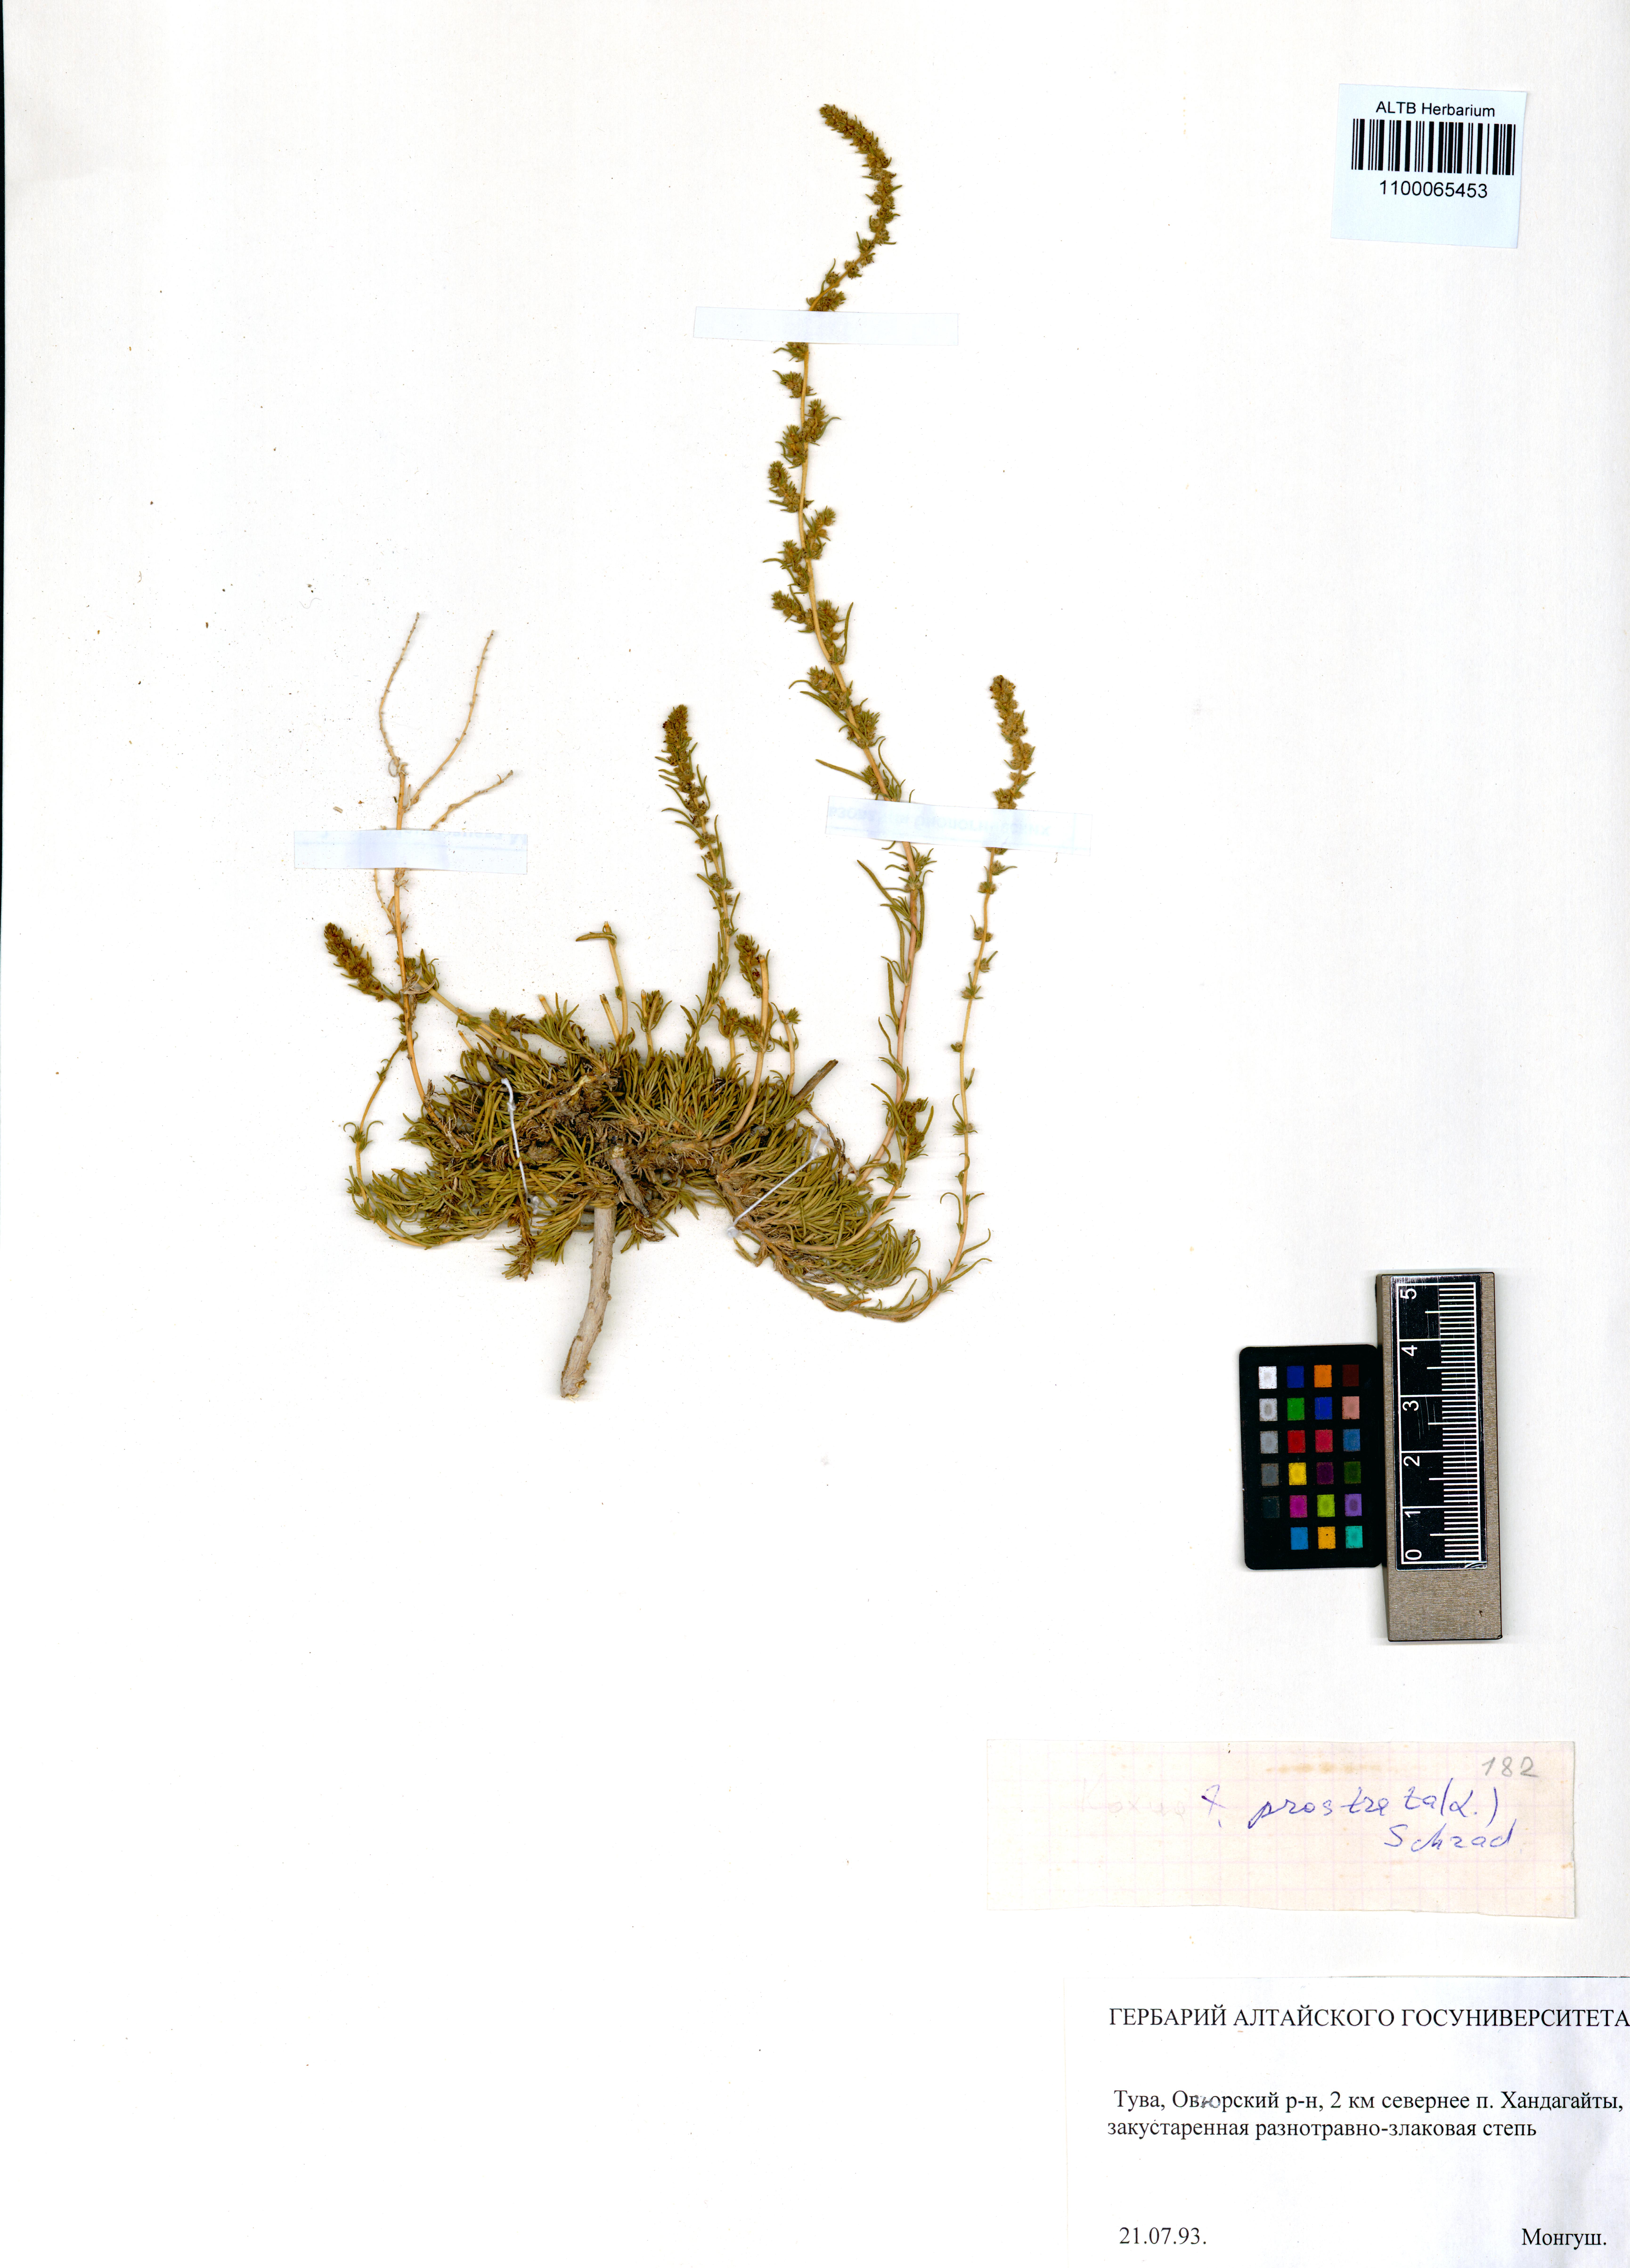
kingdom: Plantae
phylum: Tracheophyta
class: Magnoliopsida
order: Caryophyllales
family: Amaranthaceae
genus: Bassia
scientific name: Bassia prostrata
